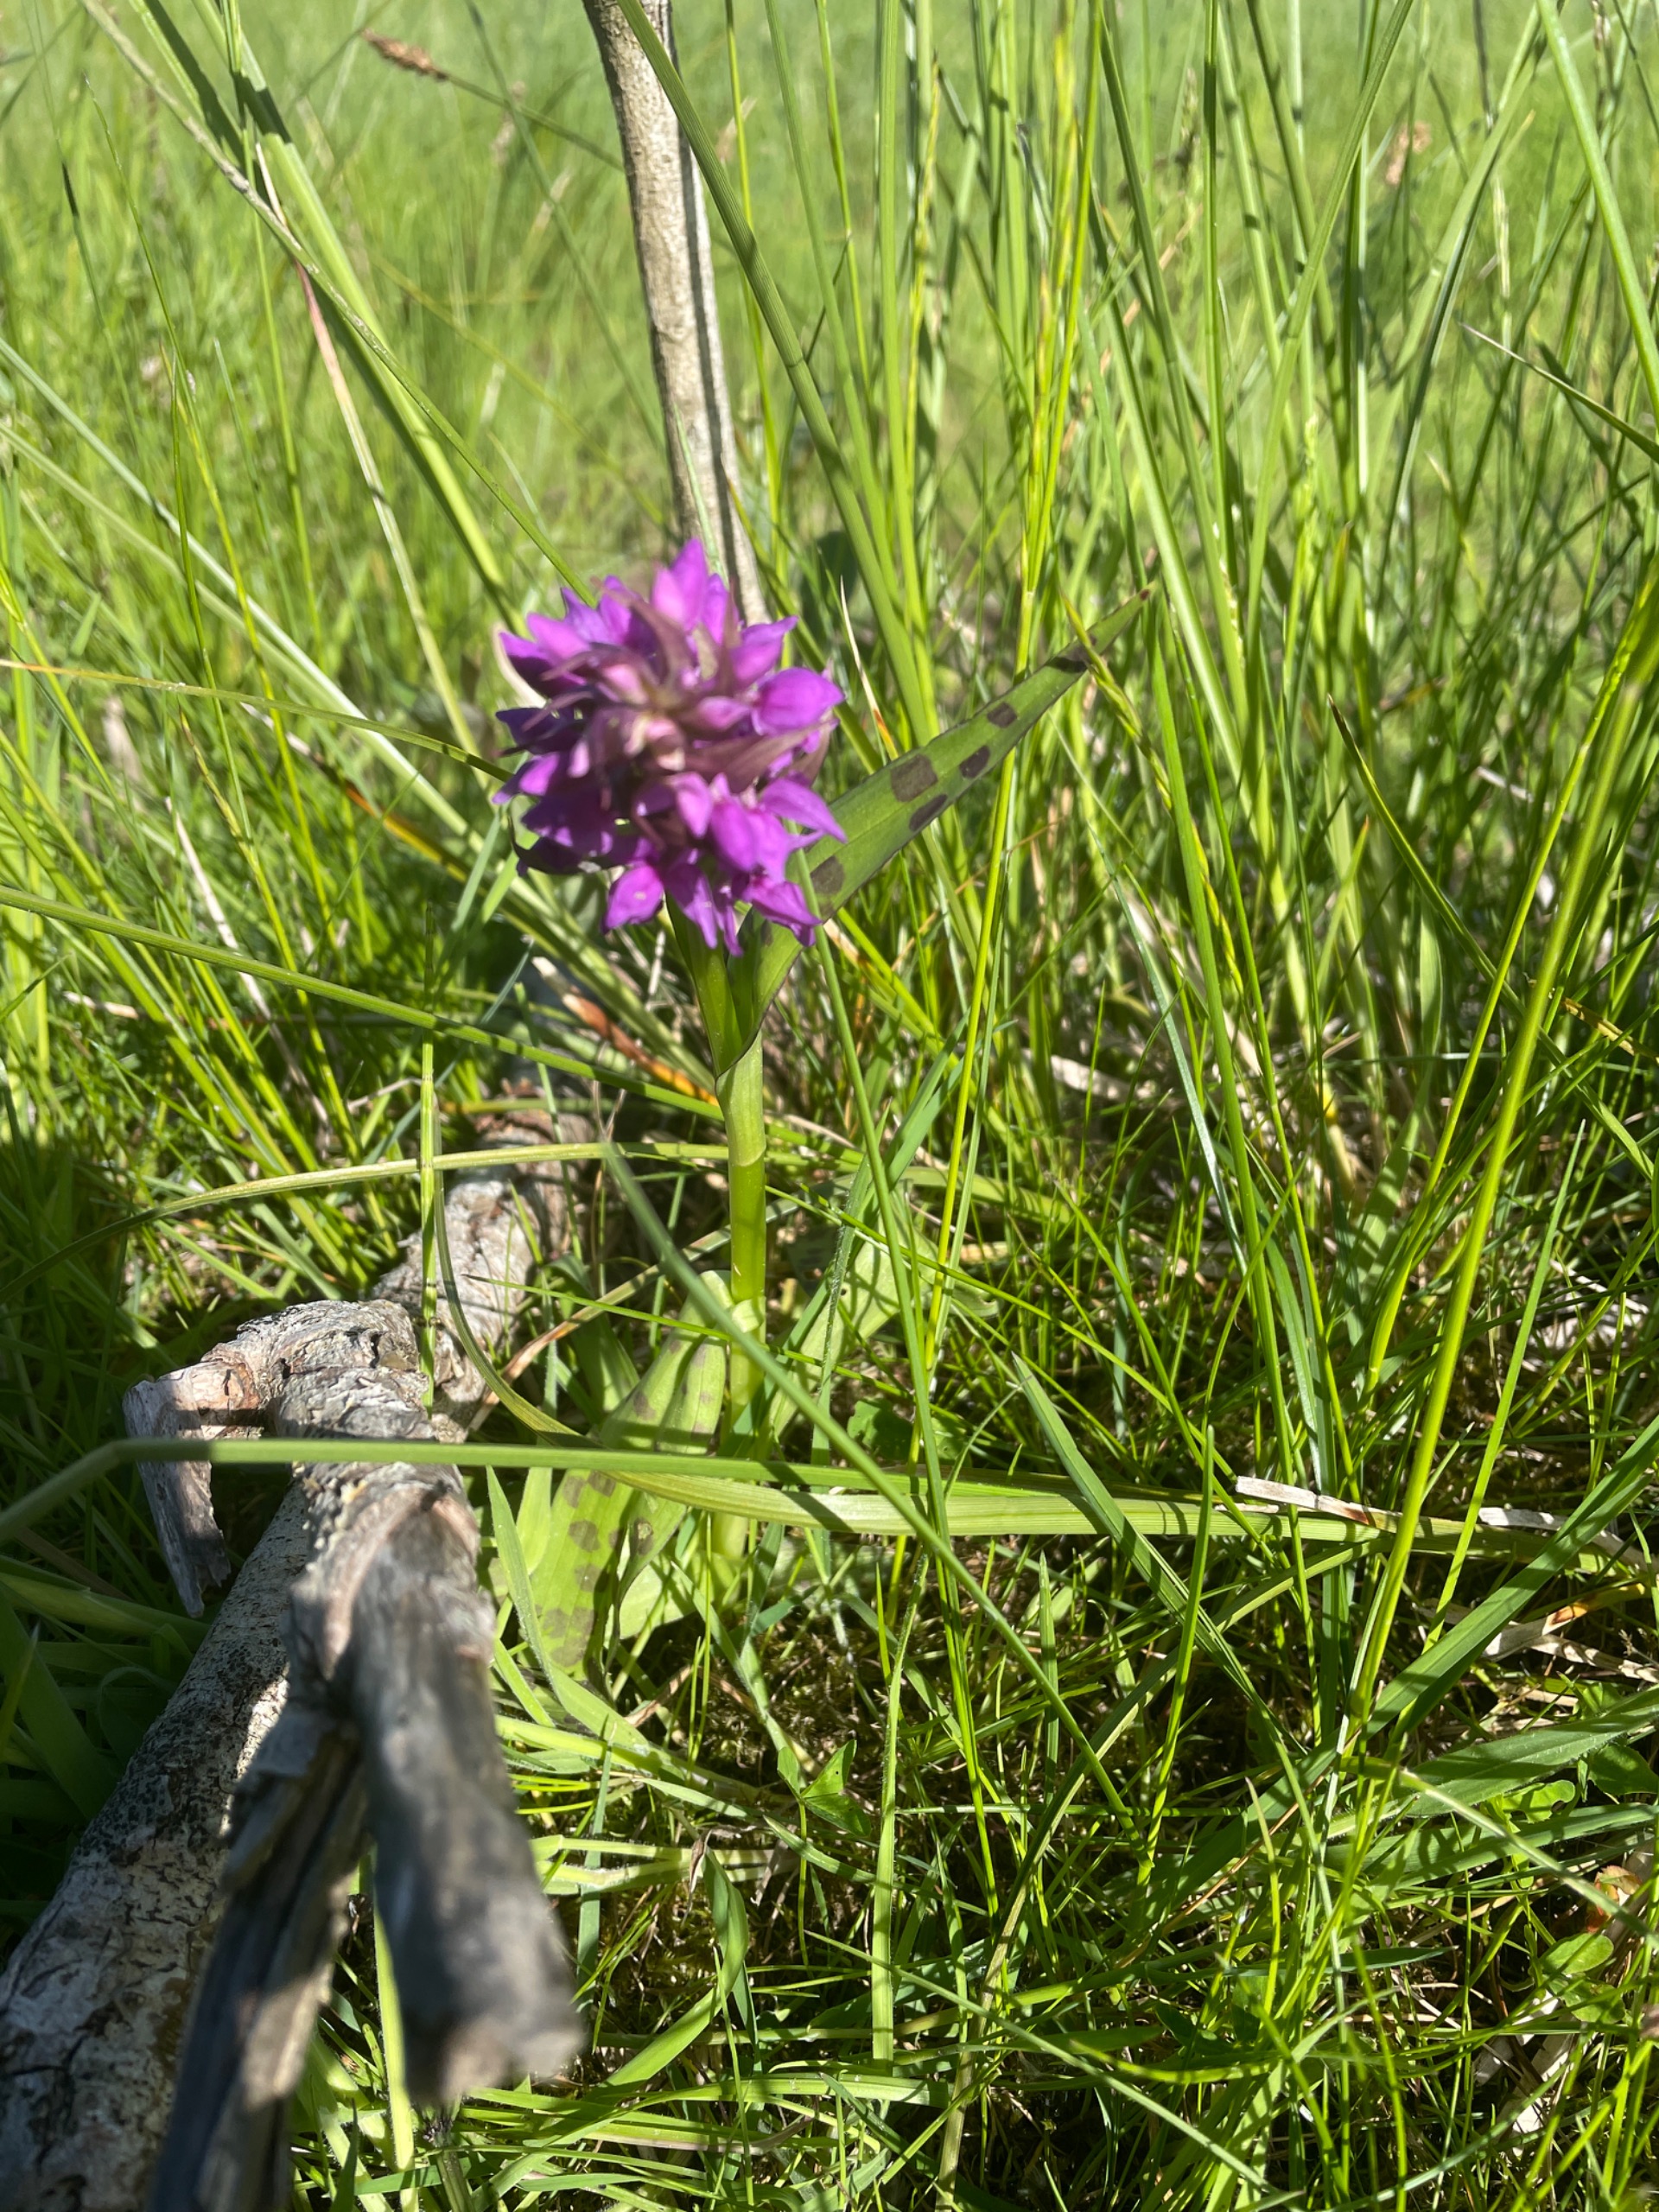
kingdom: Plantae
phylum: Tracheophyta
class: Liliopsida
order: Asparagales
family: Orchidaceae
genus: Dactylorhiza
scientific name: Dactylorhiza majalis
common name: Maj-gøgeurt
